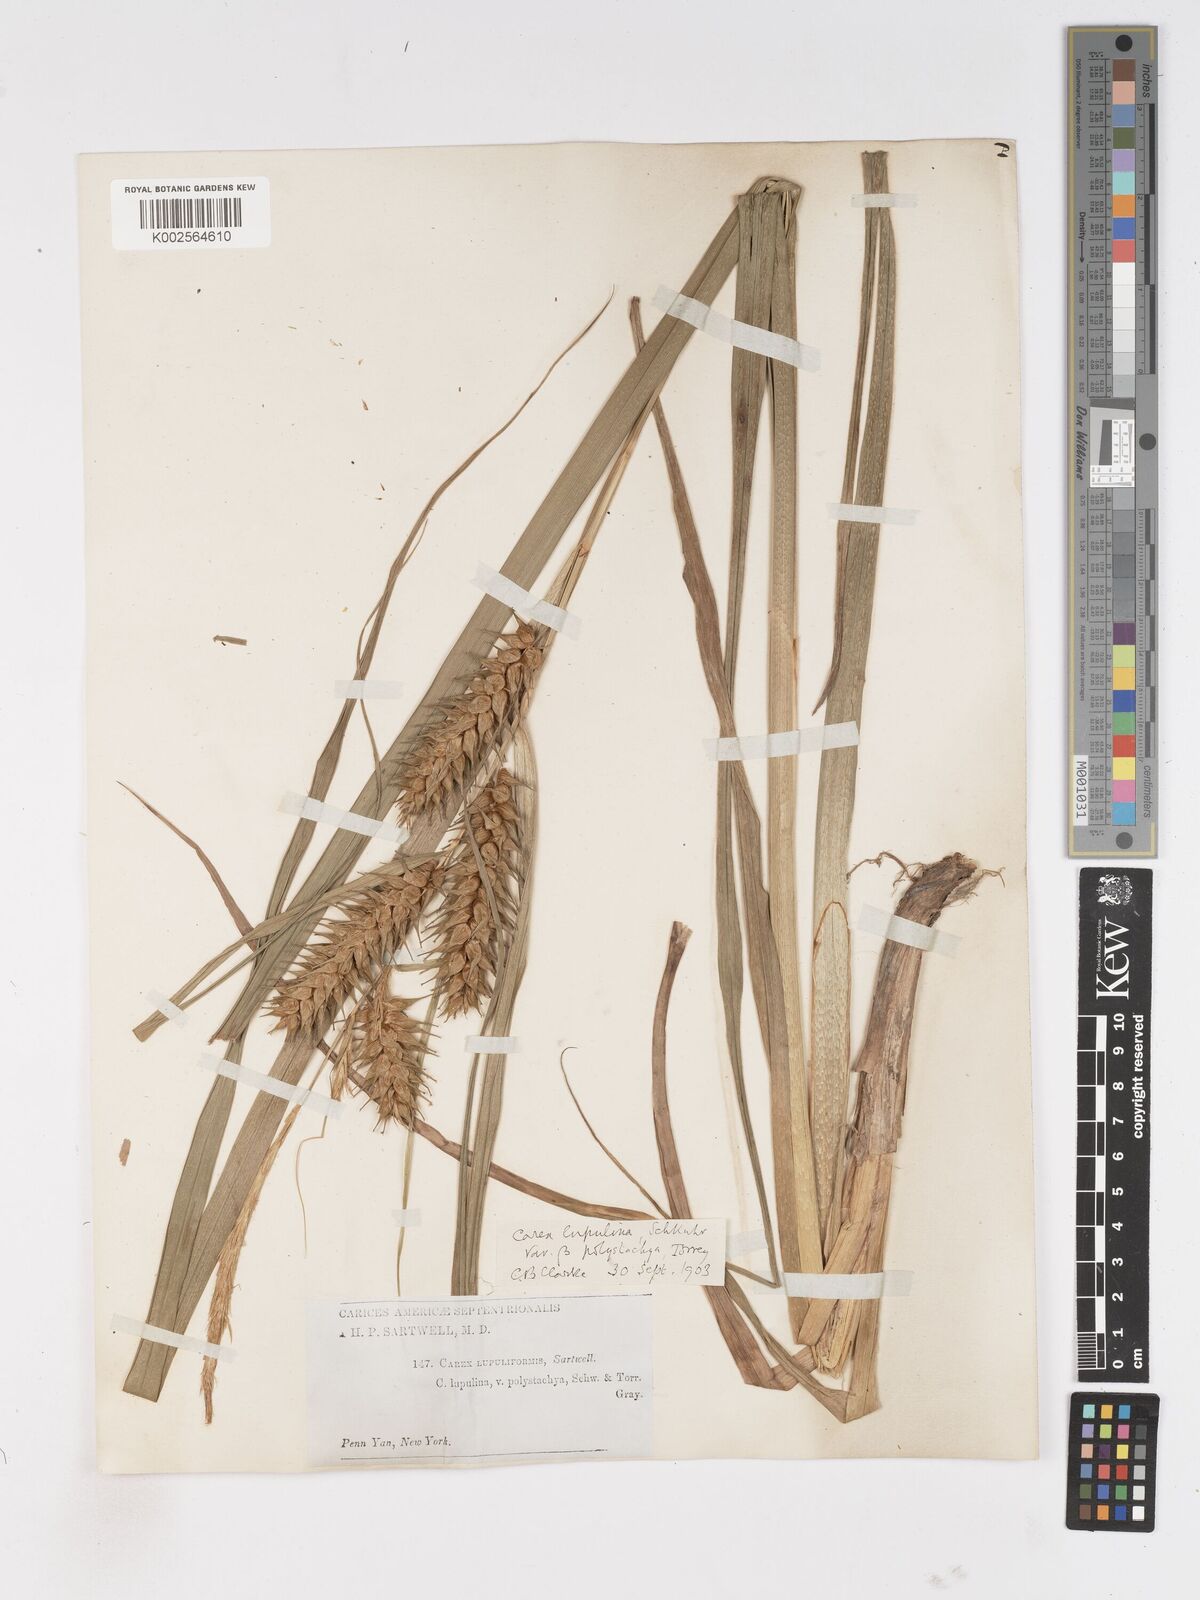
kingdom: Plantae
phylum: Tracheophyta
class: Liliopsida
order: Poales
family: Cyperaceae
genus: Carex
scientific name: Carex lupuliformis
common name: False hop sedge
